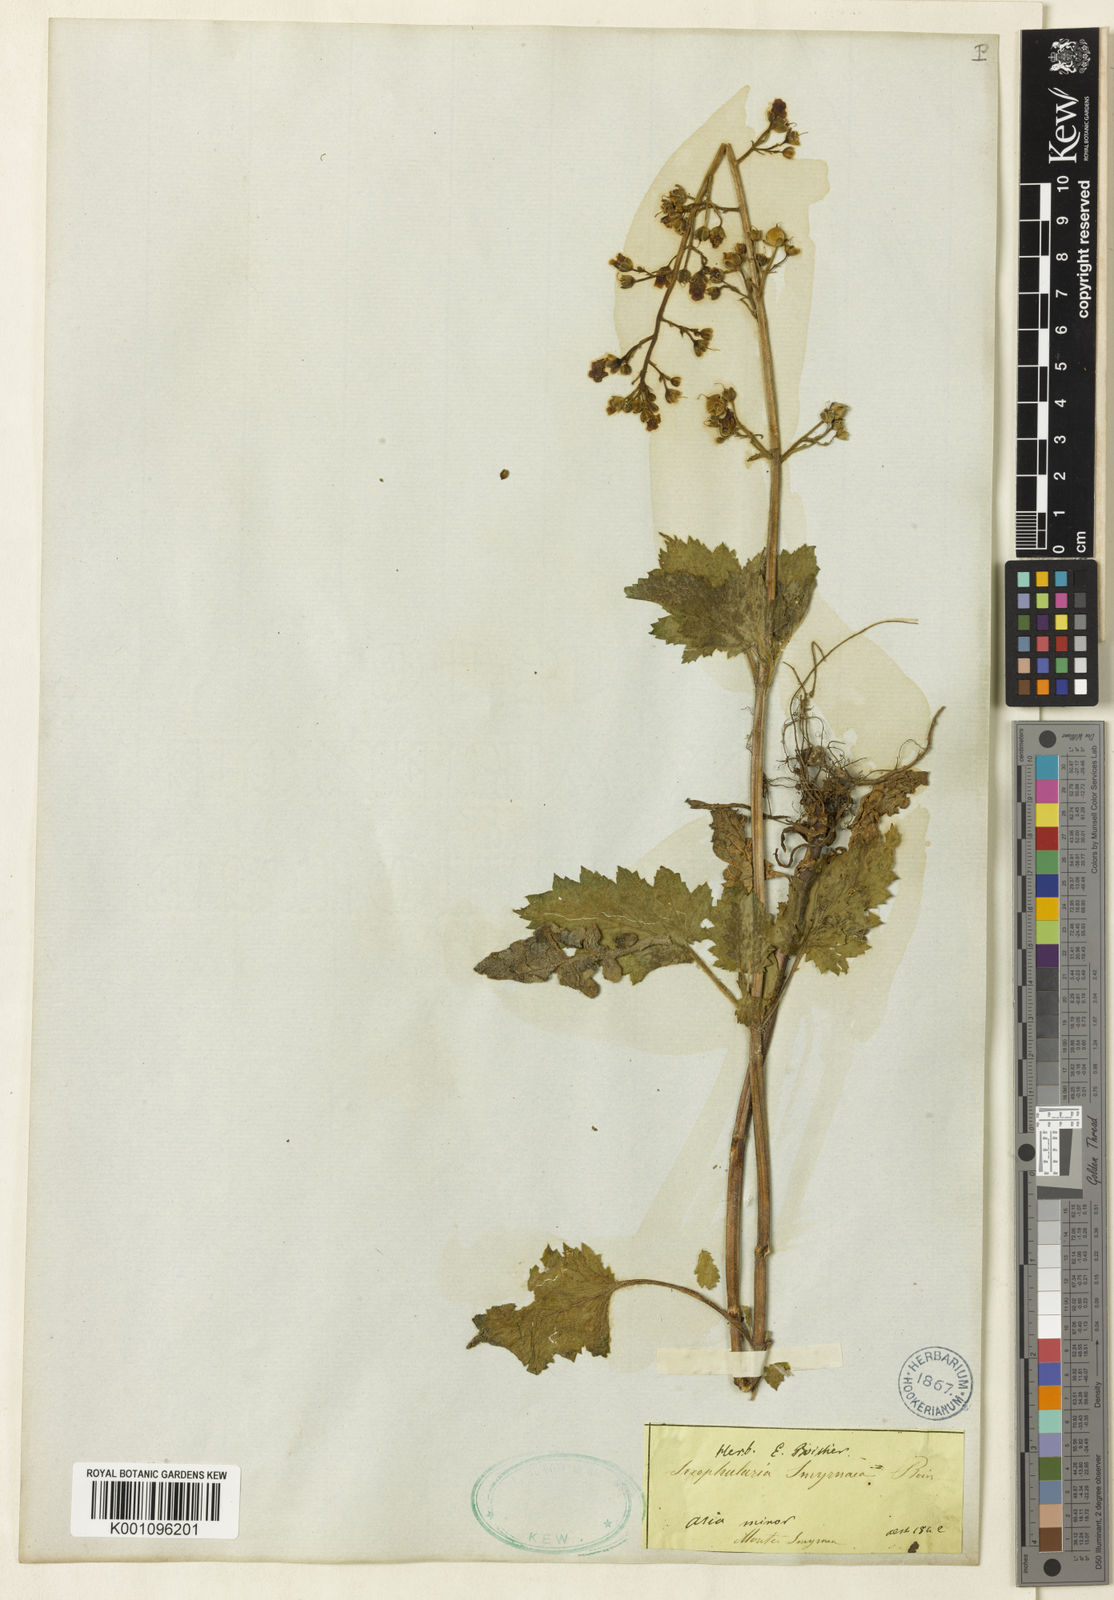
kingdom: Plantae
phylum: Tracheophyta
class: Magnoliopsida
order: Lamiales
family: Scrophulariaceae
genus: Scrophularia
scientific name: Scrophularia scopolii
